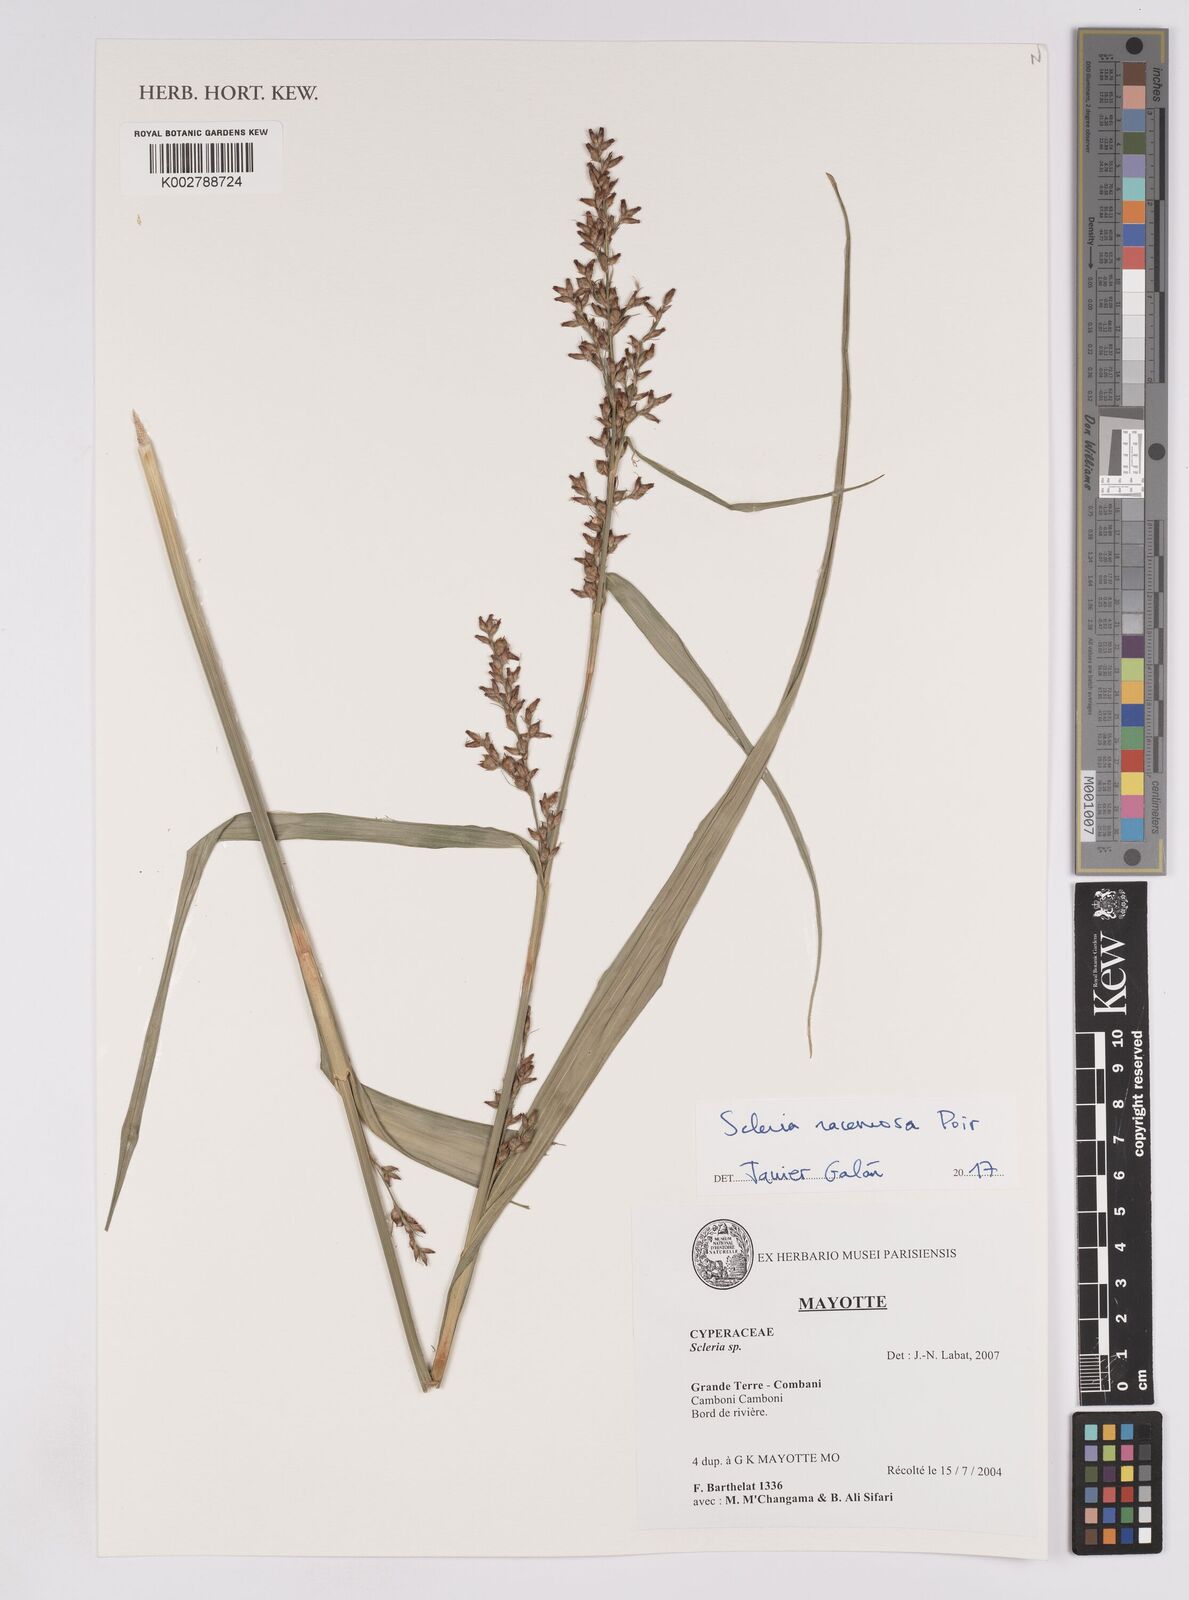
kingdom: Plantae
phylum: Tracheophyta
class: Liliopsida
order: Poales
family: Cyperaceae
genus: Scleria
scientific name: Scleria racemosa
